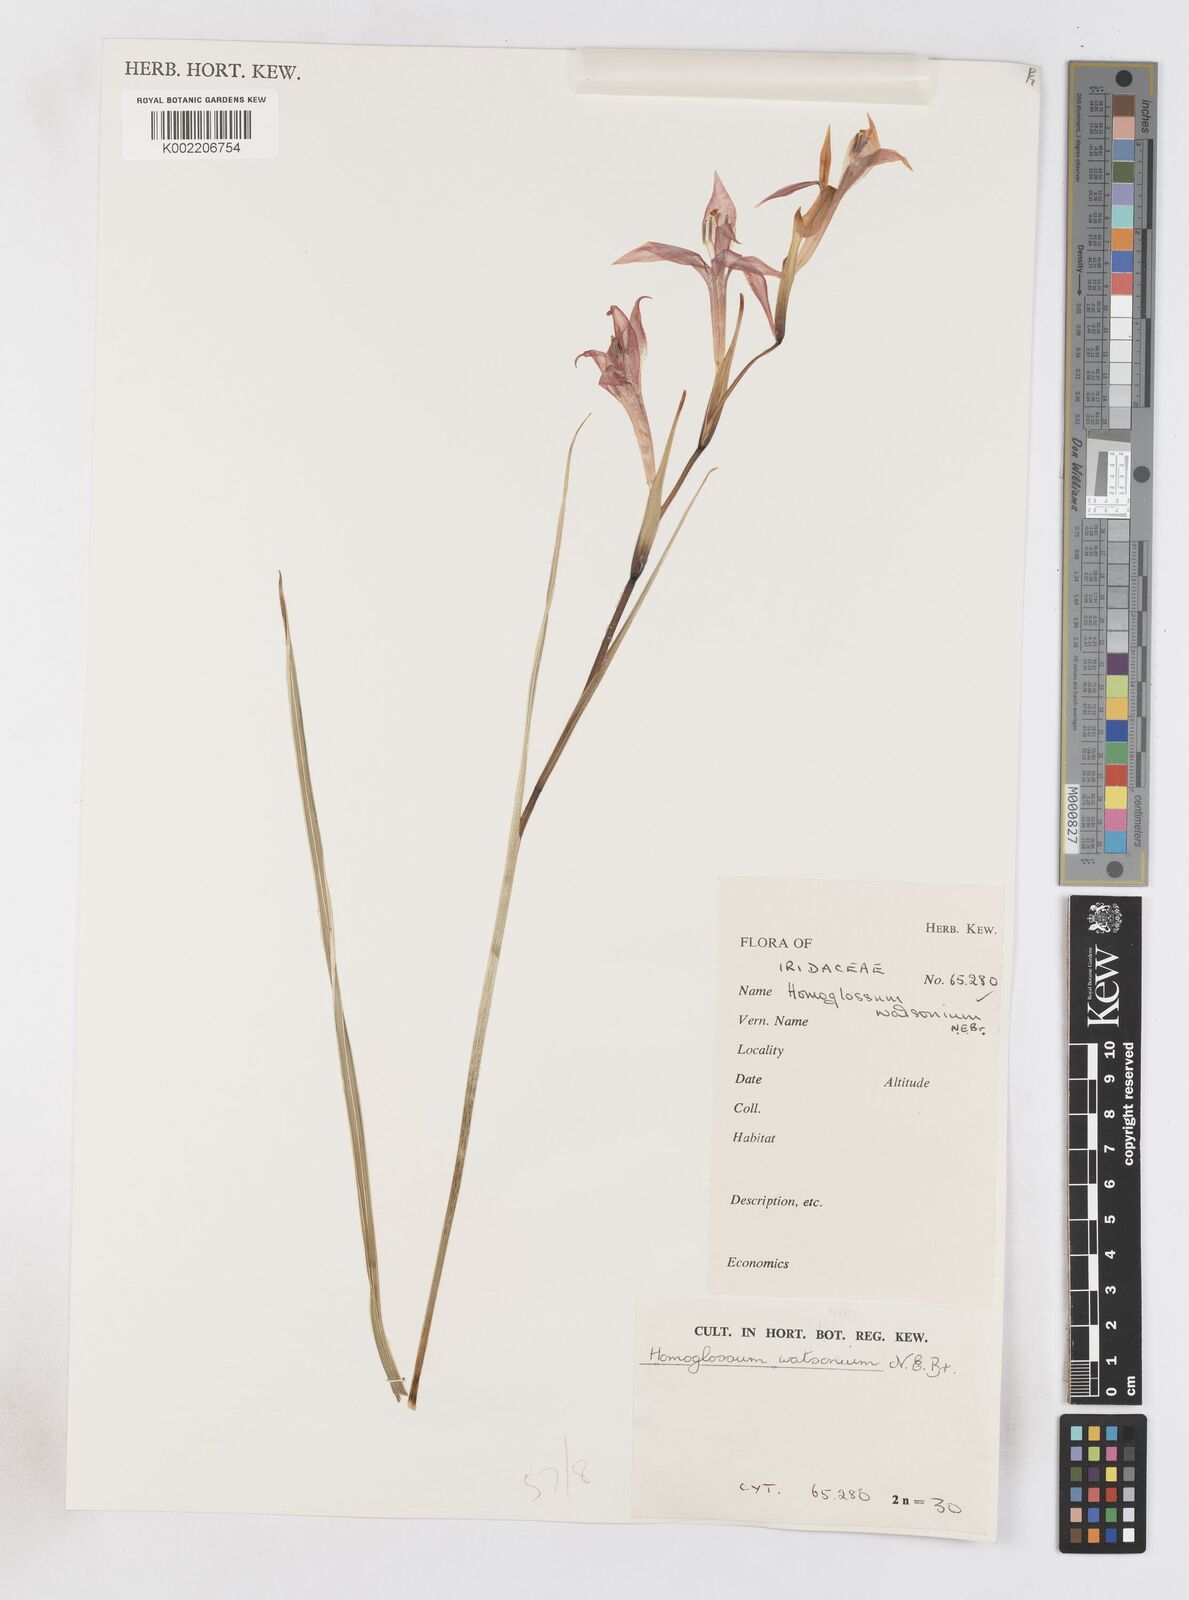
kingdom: Plantae
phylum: Tracheophyta
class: Liliopsida
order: Asparagales
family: Iridaceae
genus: Gladiolus
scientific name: Gladiolus watsonius
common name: Red afrikaner
